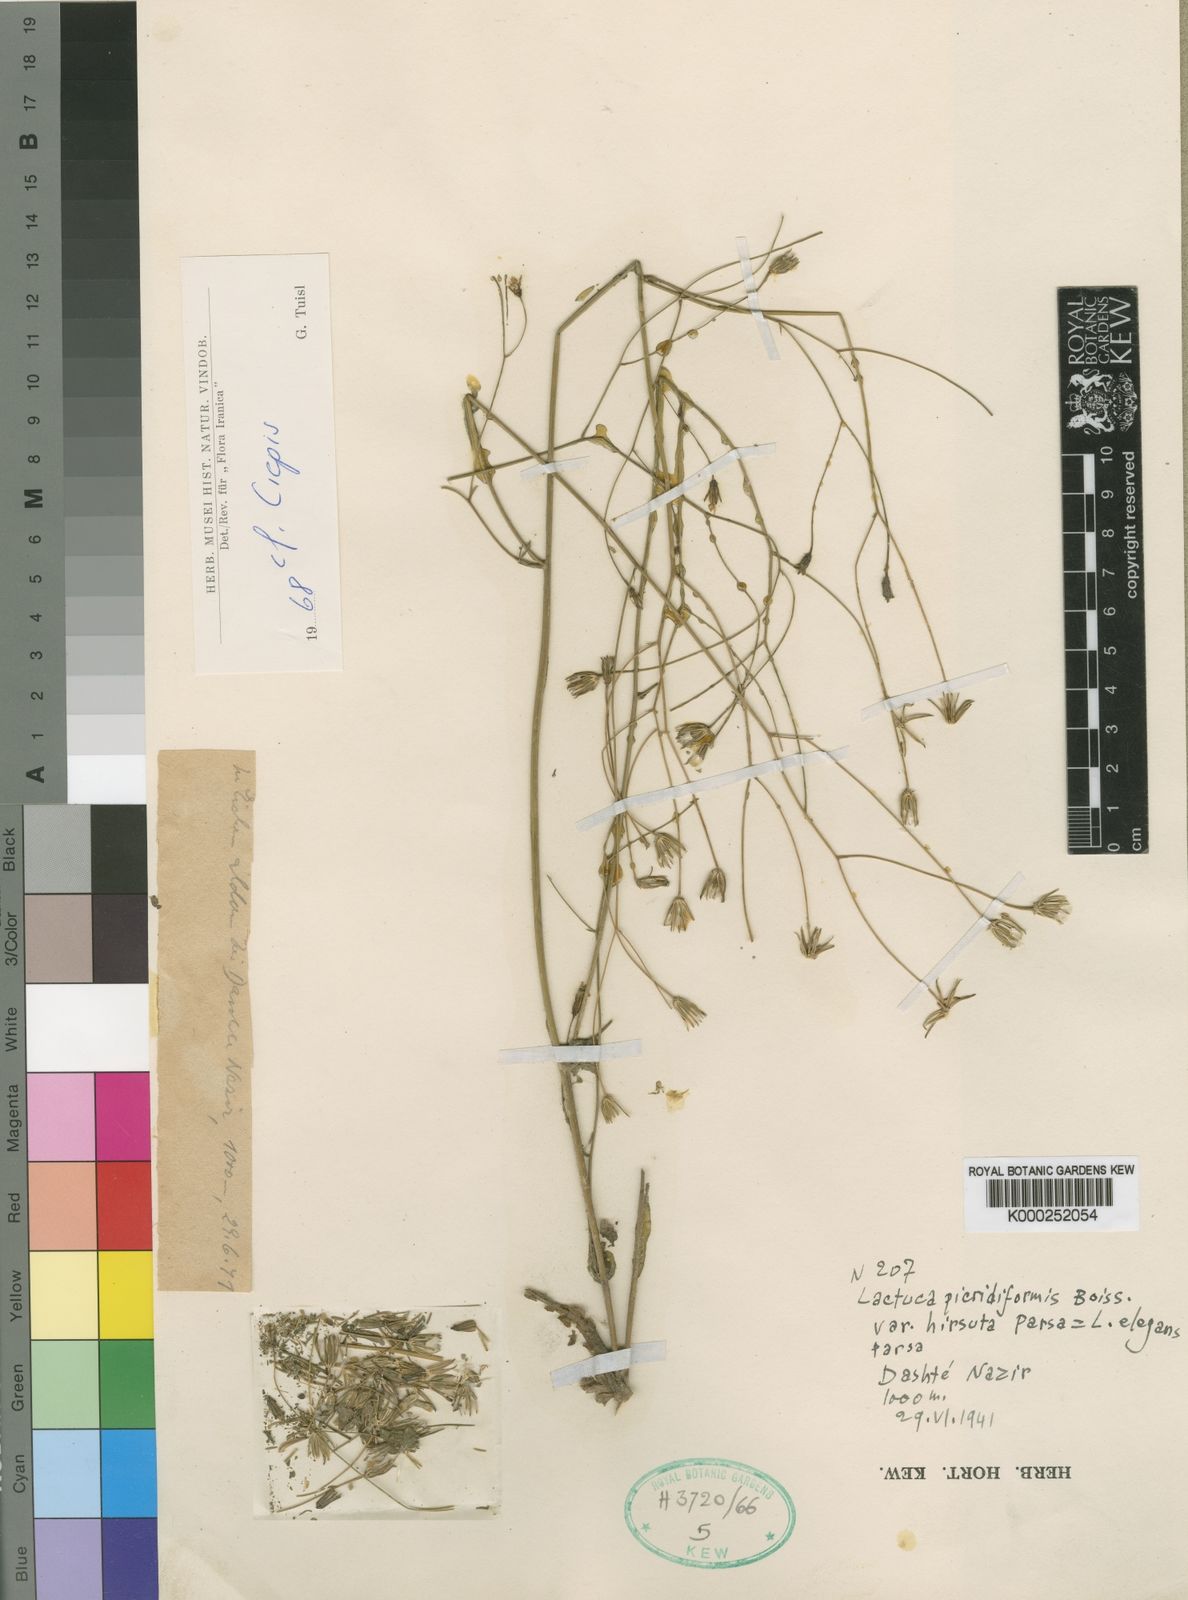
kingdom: Plantae
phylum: Tracheophyta
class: Magnoliopsida
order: Asterales
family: Asteraceae
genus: Crepis
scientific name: Crepis
